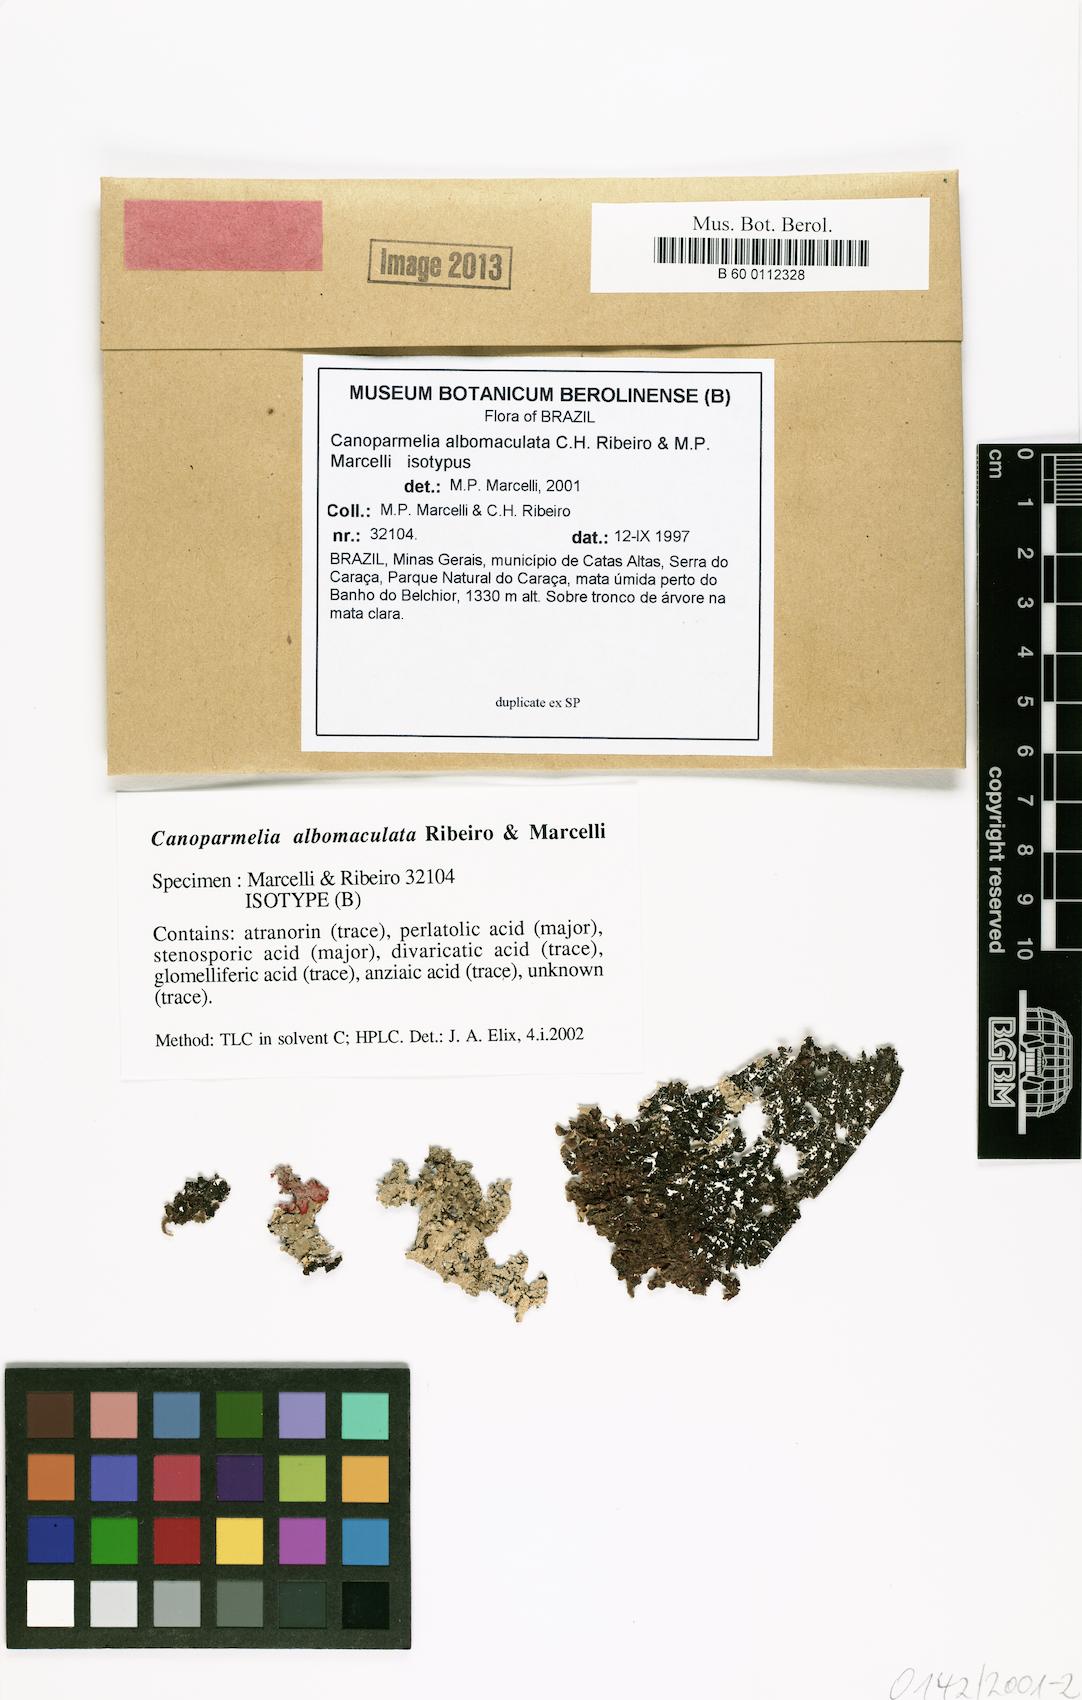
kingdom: Fungi
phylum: Ascomycota
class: Lecanoromycetes
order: Lecanorales
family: Parmeliaceae
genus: Canoparmelia
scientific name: Canoparmelia albomaculata
